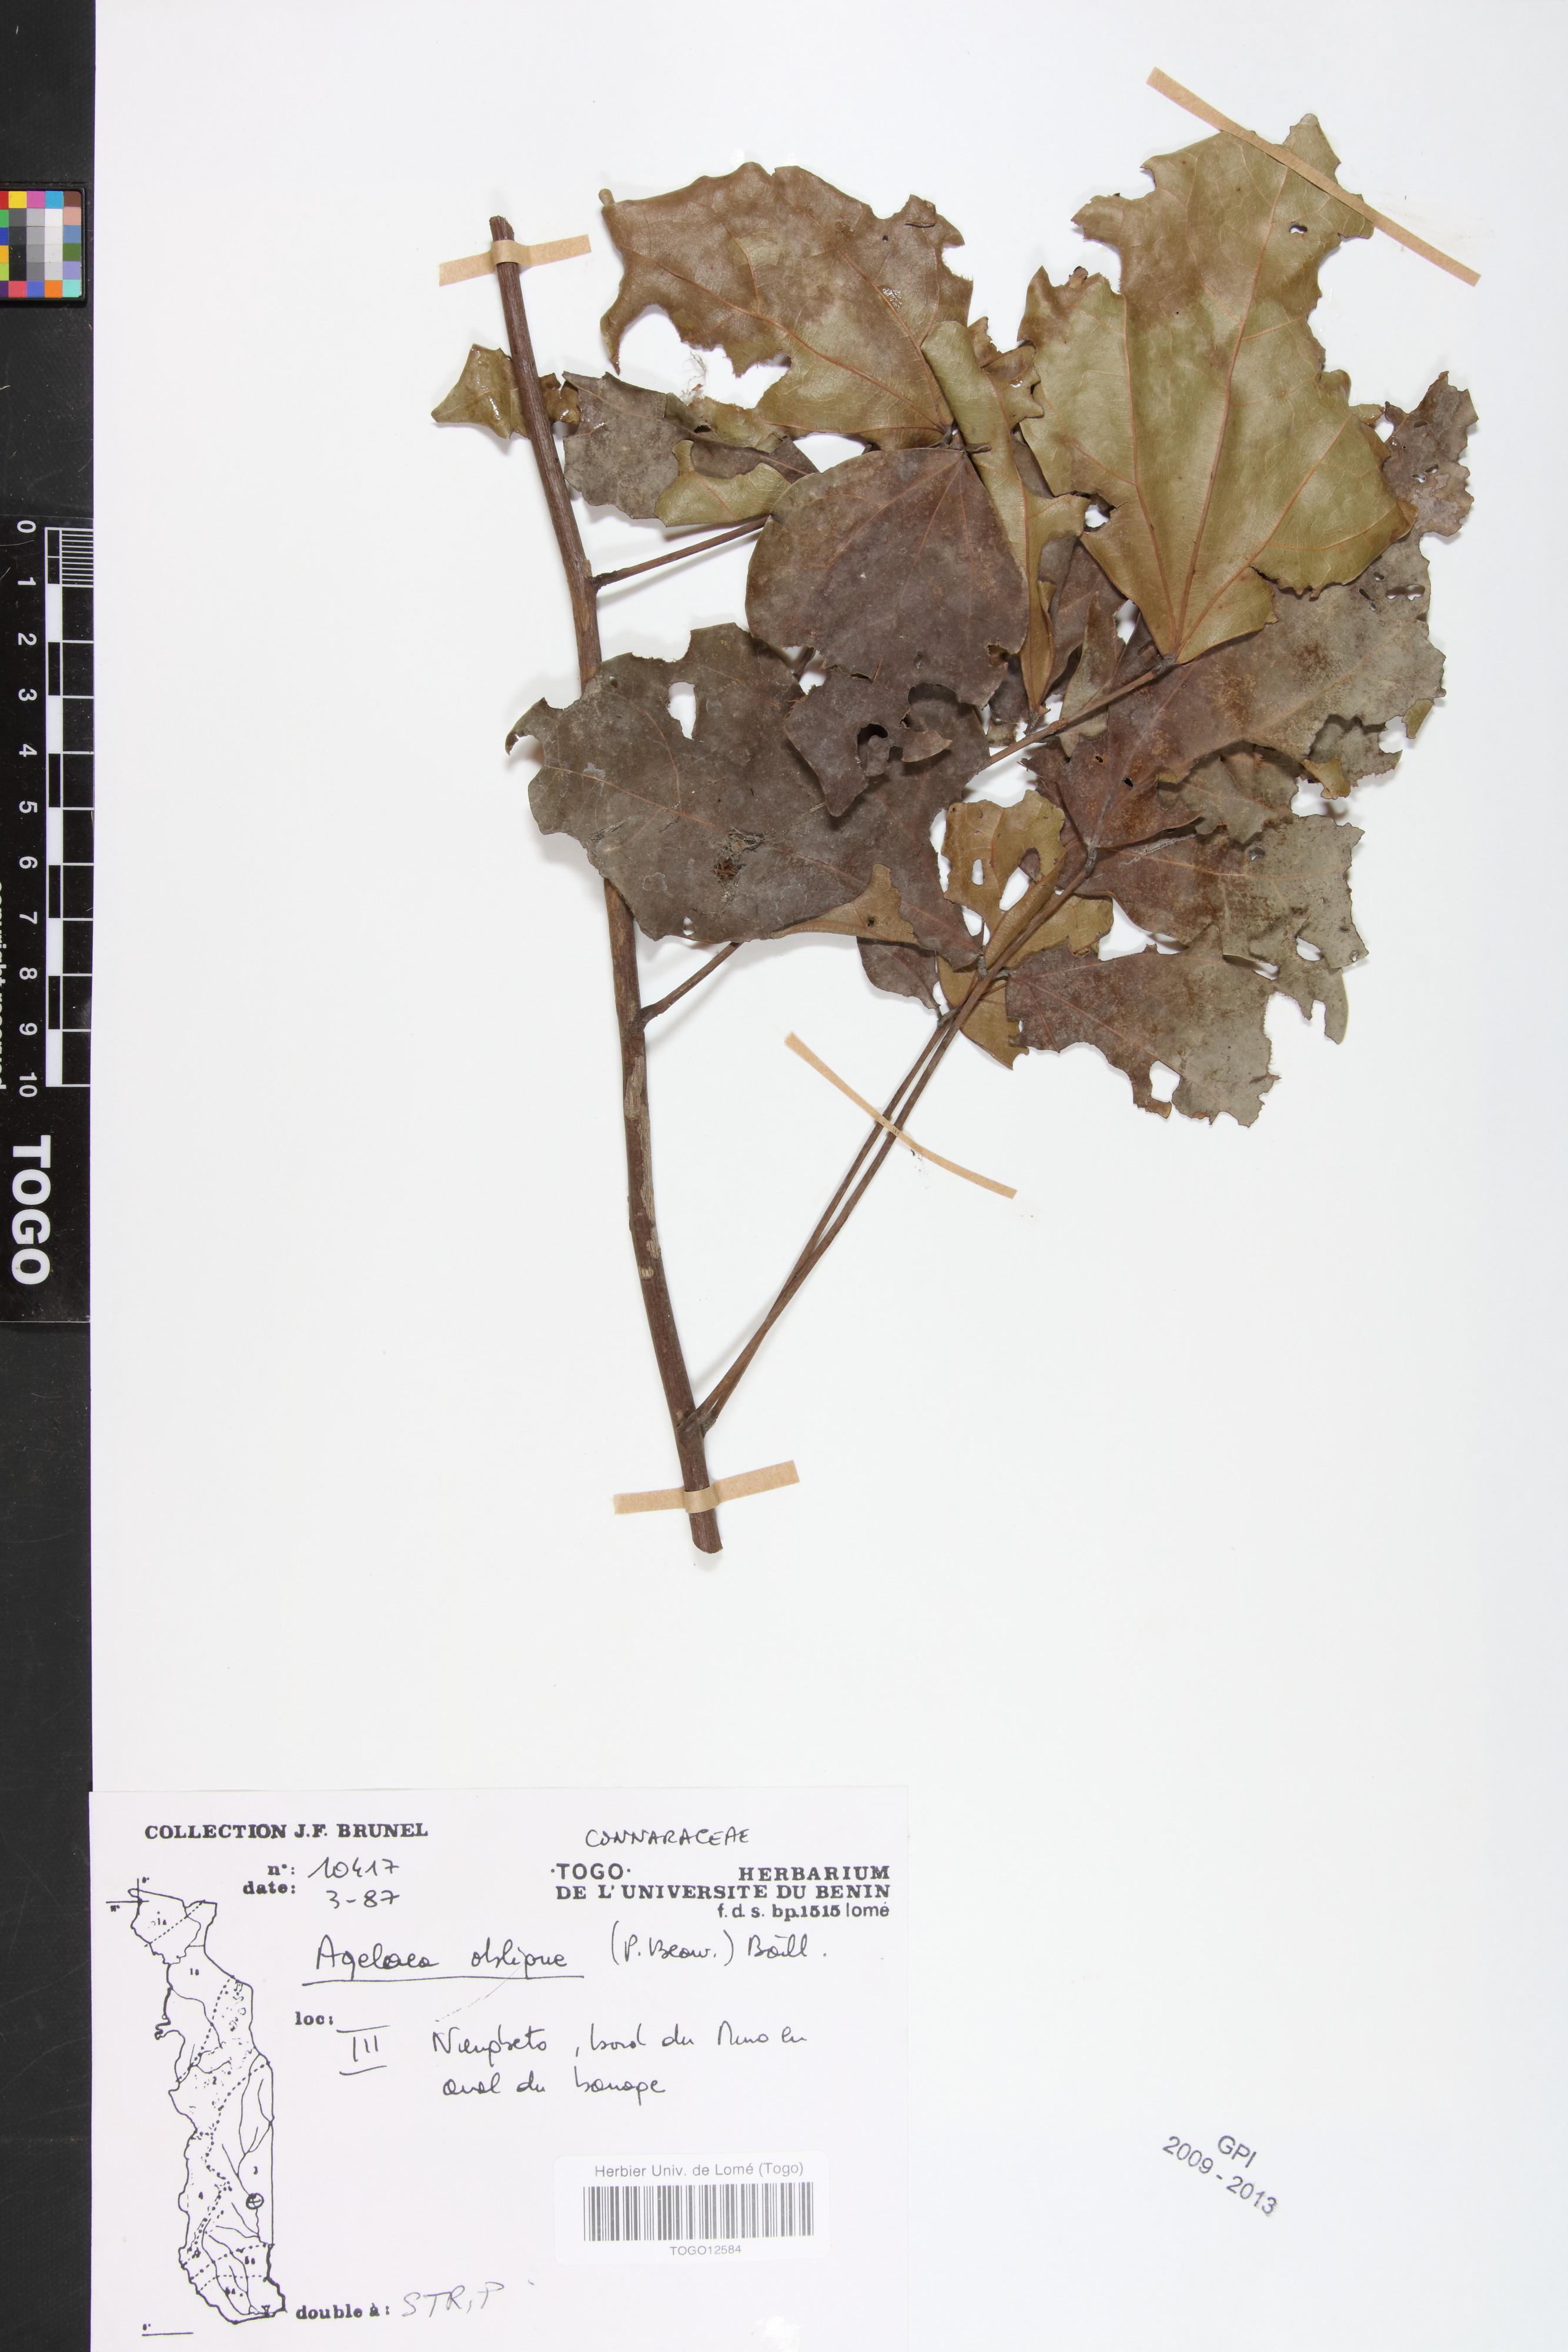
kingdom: Plantae
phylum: Tracheophyta
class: Magnoliopsida
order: Oxalidales
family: Connaraceae
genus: Agelaea
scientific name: Agelaea pentagyna
